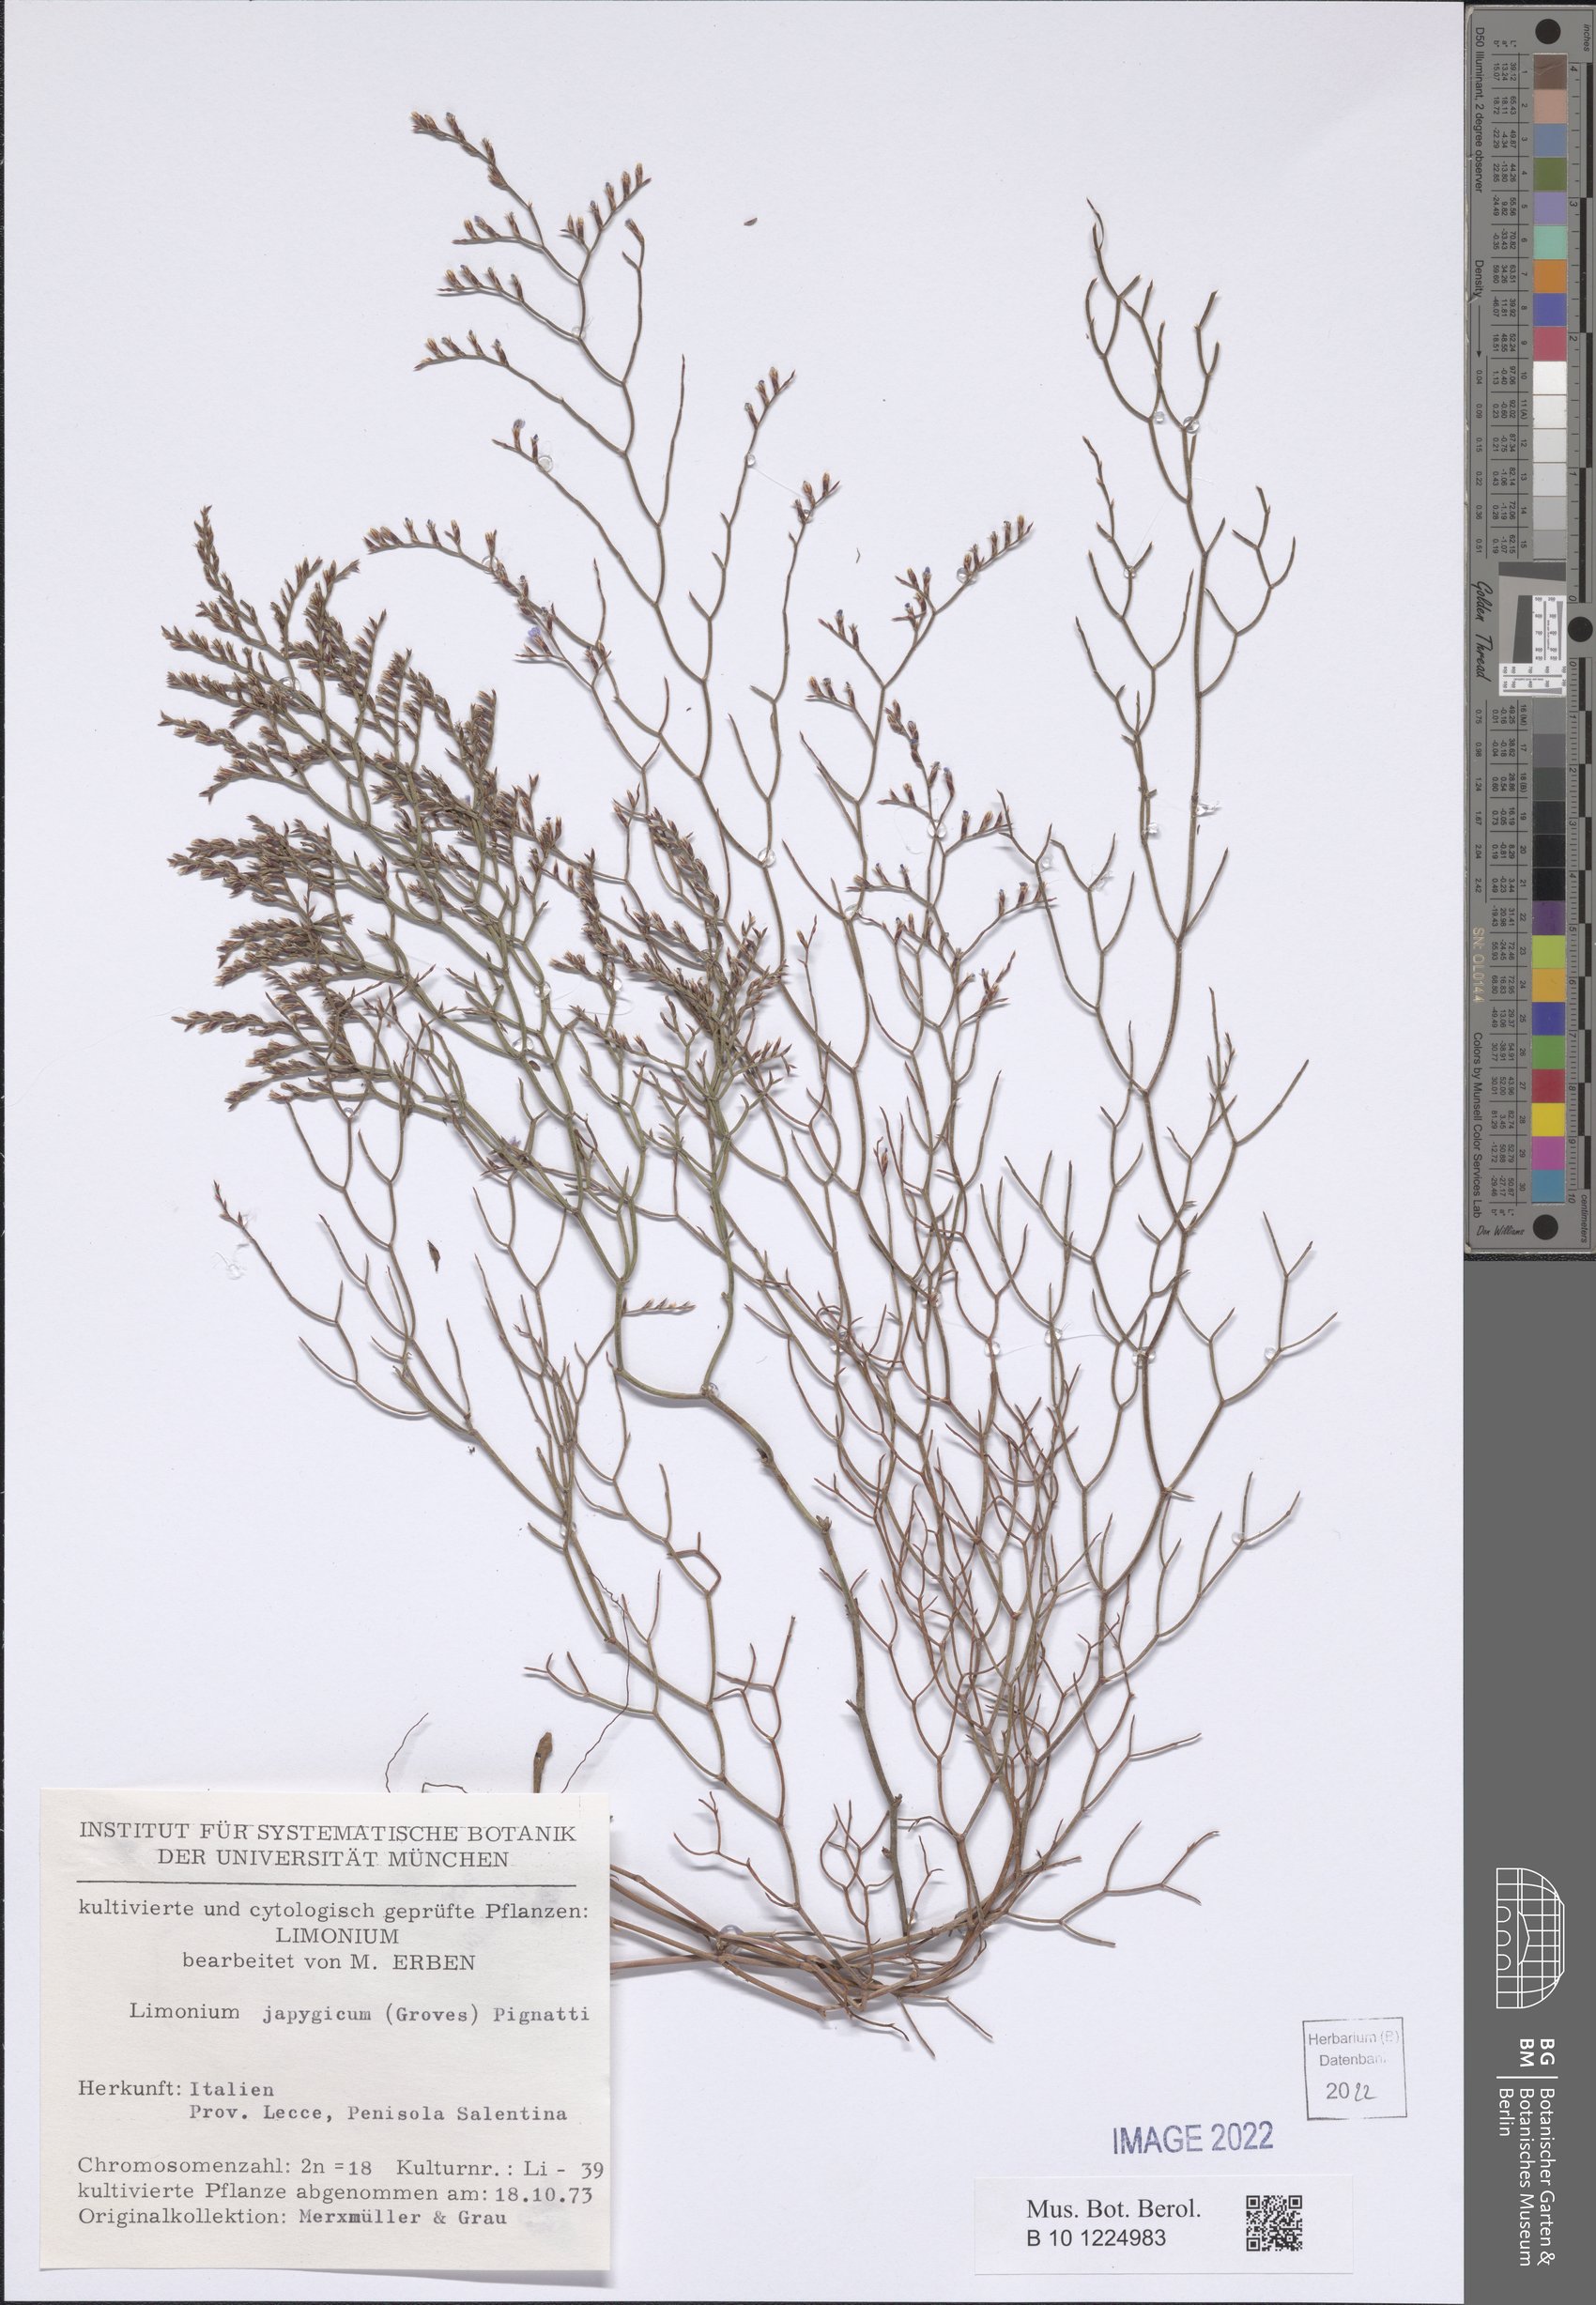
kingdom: Plantae
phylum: Tracheophyta
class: Magnoliopsida
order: Caryophyllales
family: Plumbaginaceae
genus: Limonium
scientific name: Limonium japygicum
